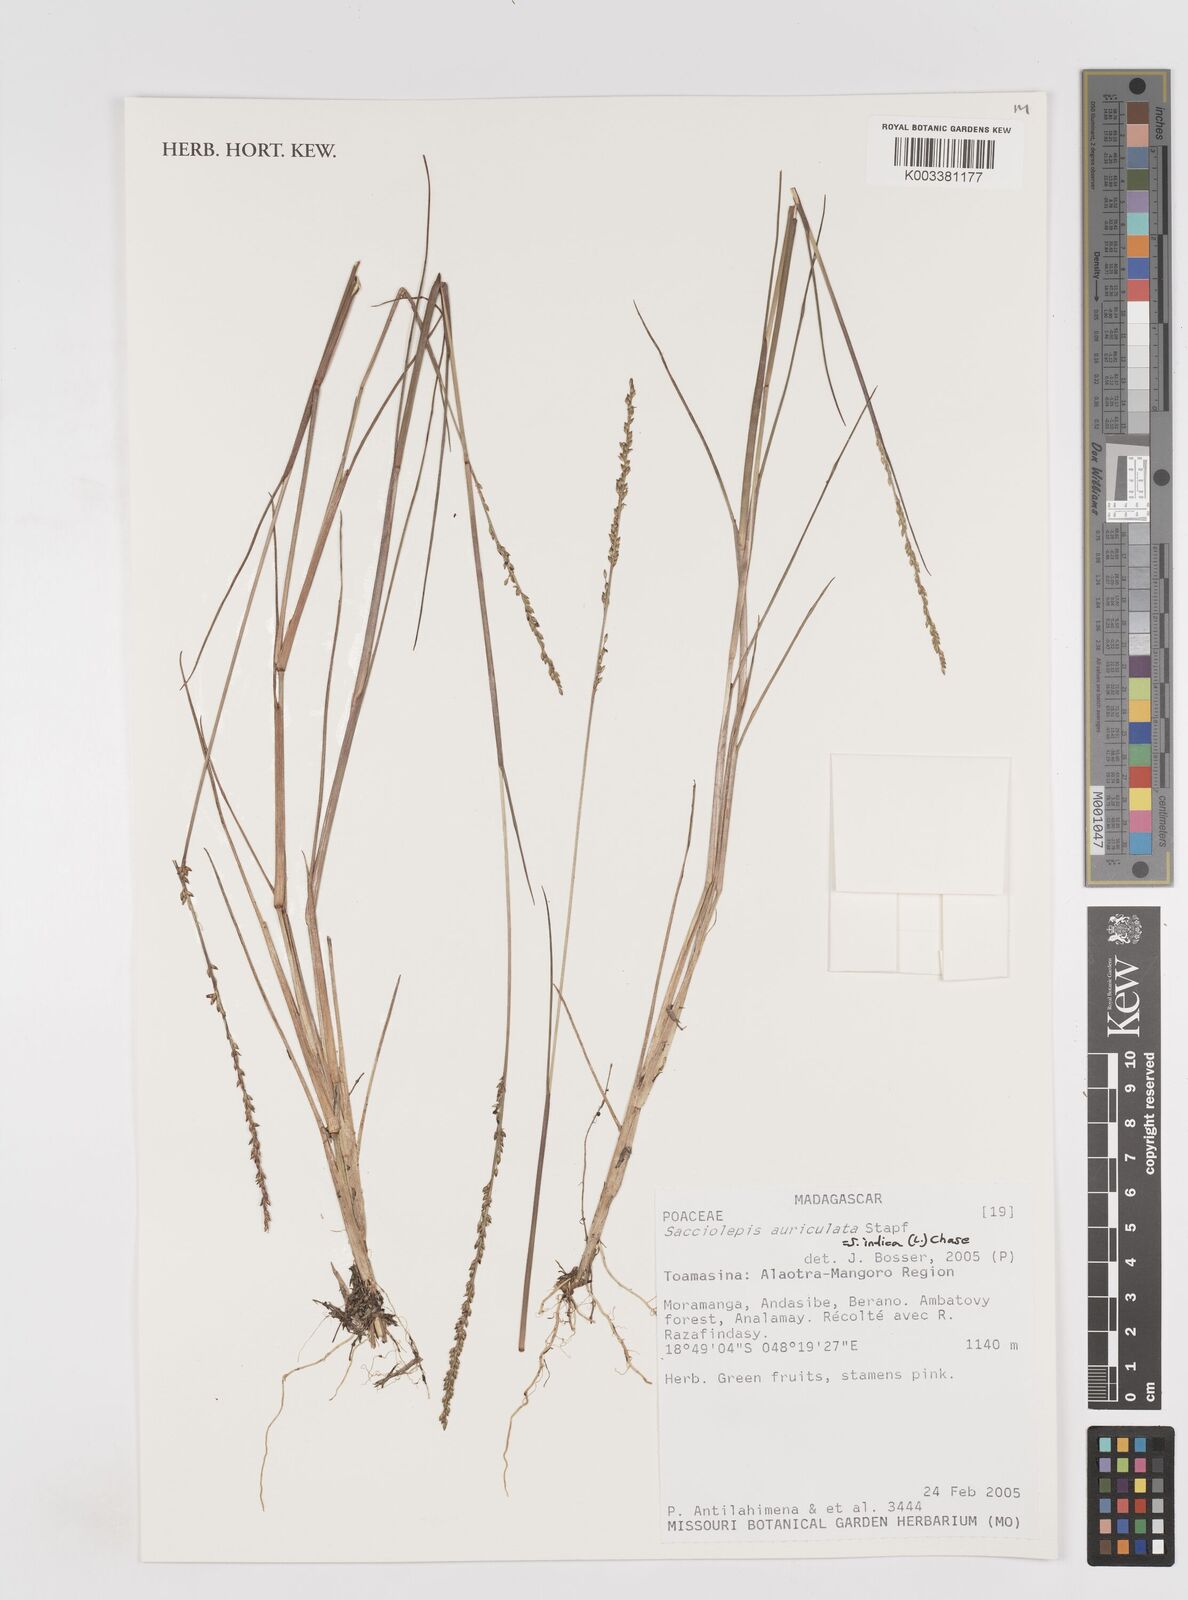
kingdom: Plantae
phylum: Tracheophyta
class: Liliopsida
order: Poales
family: Poaceae
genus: Sacciolepis
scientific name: Sacciolepis indica
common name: Glenwoodgrass
